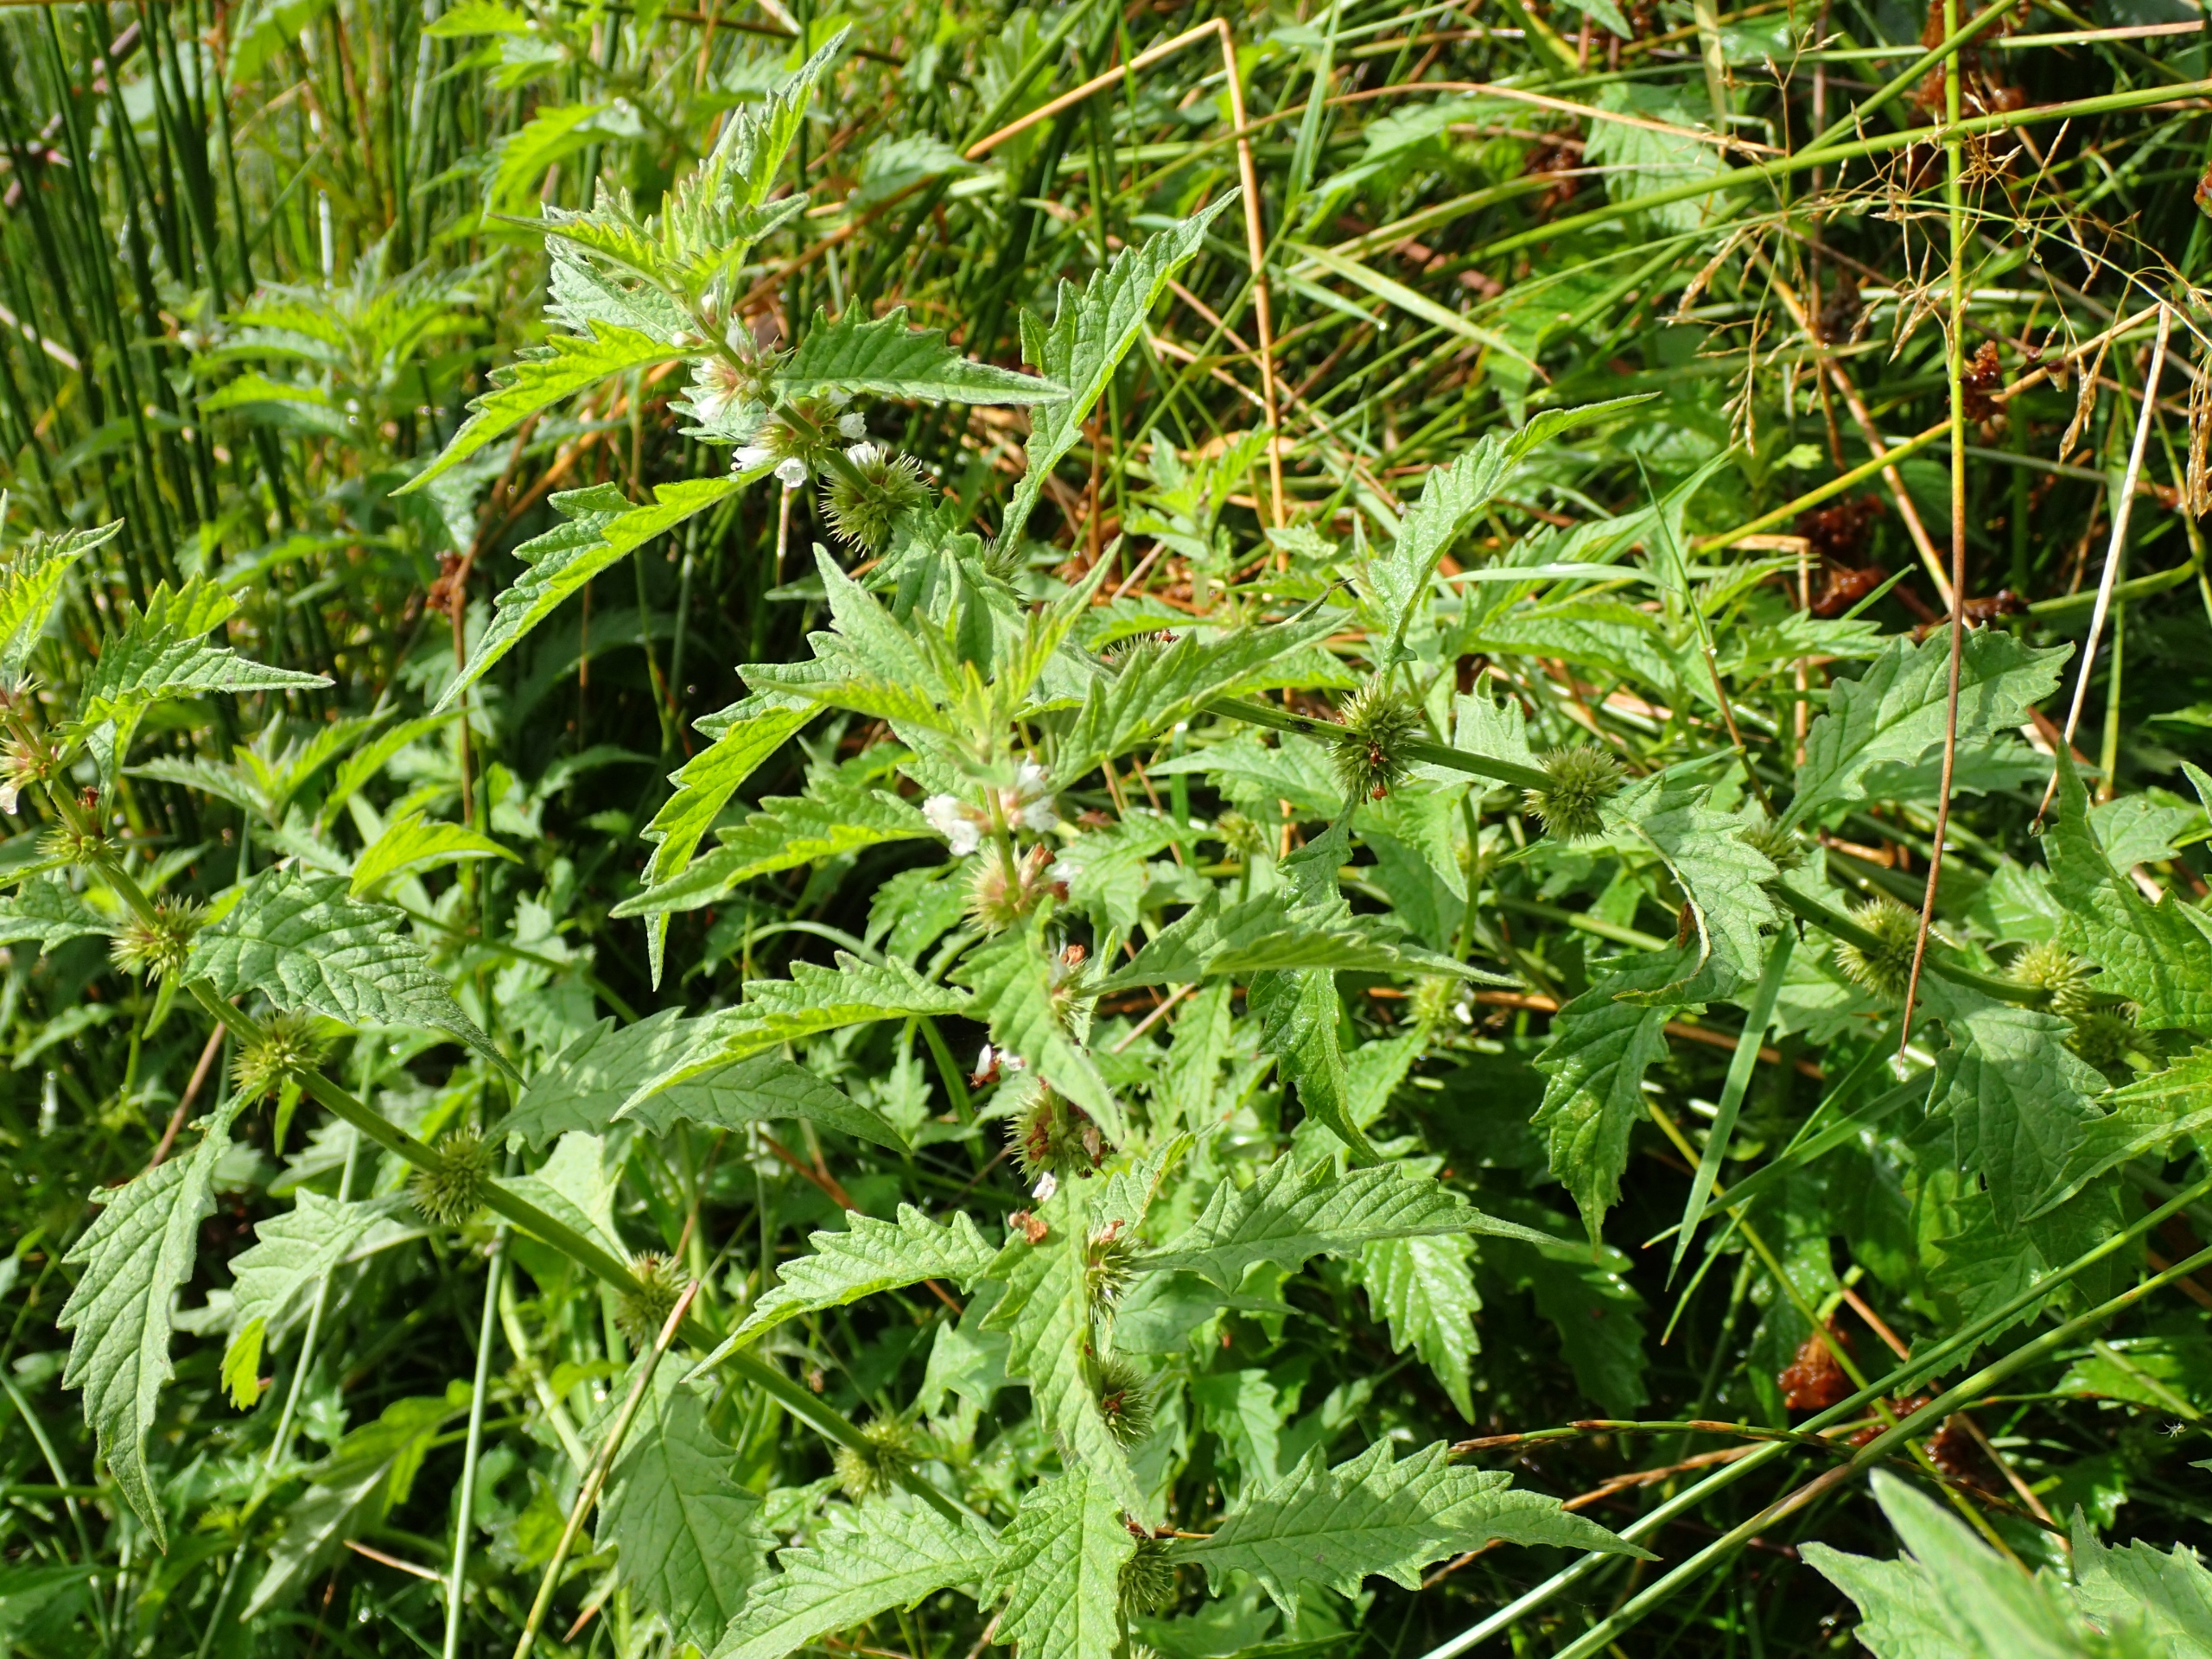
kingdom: Plantae
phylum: Tracheophyta
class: Magnoliopsida
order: Lamiales
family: Lamiaceae
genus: Lycopus
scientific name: Lycopus europaeus
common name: Sværtevæld
